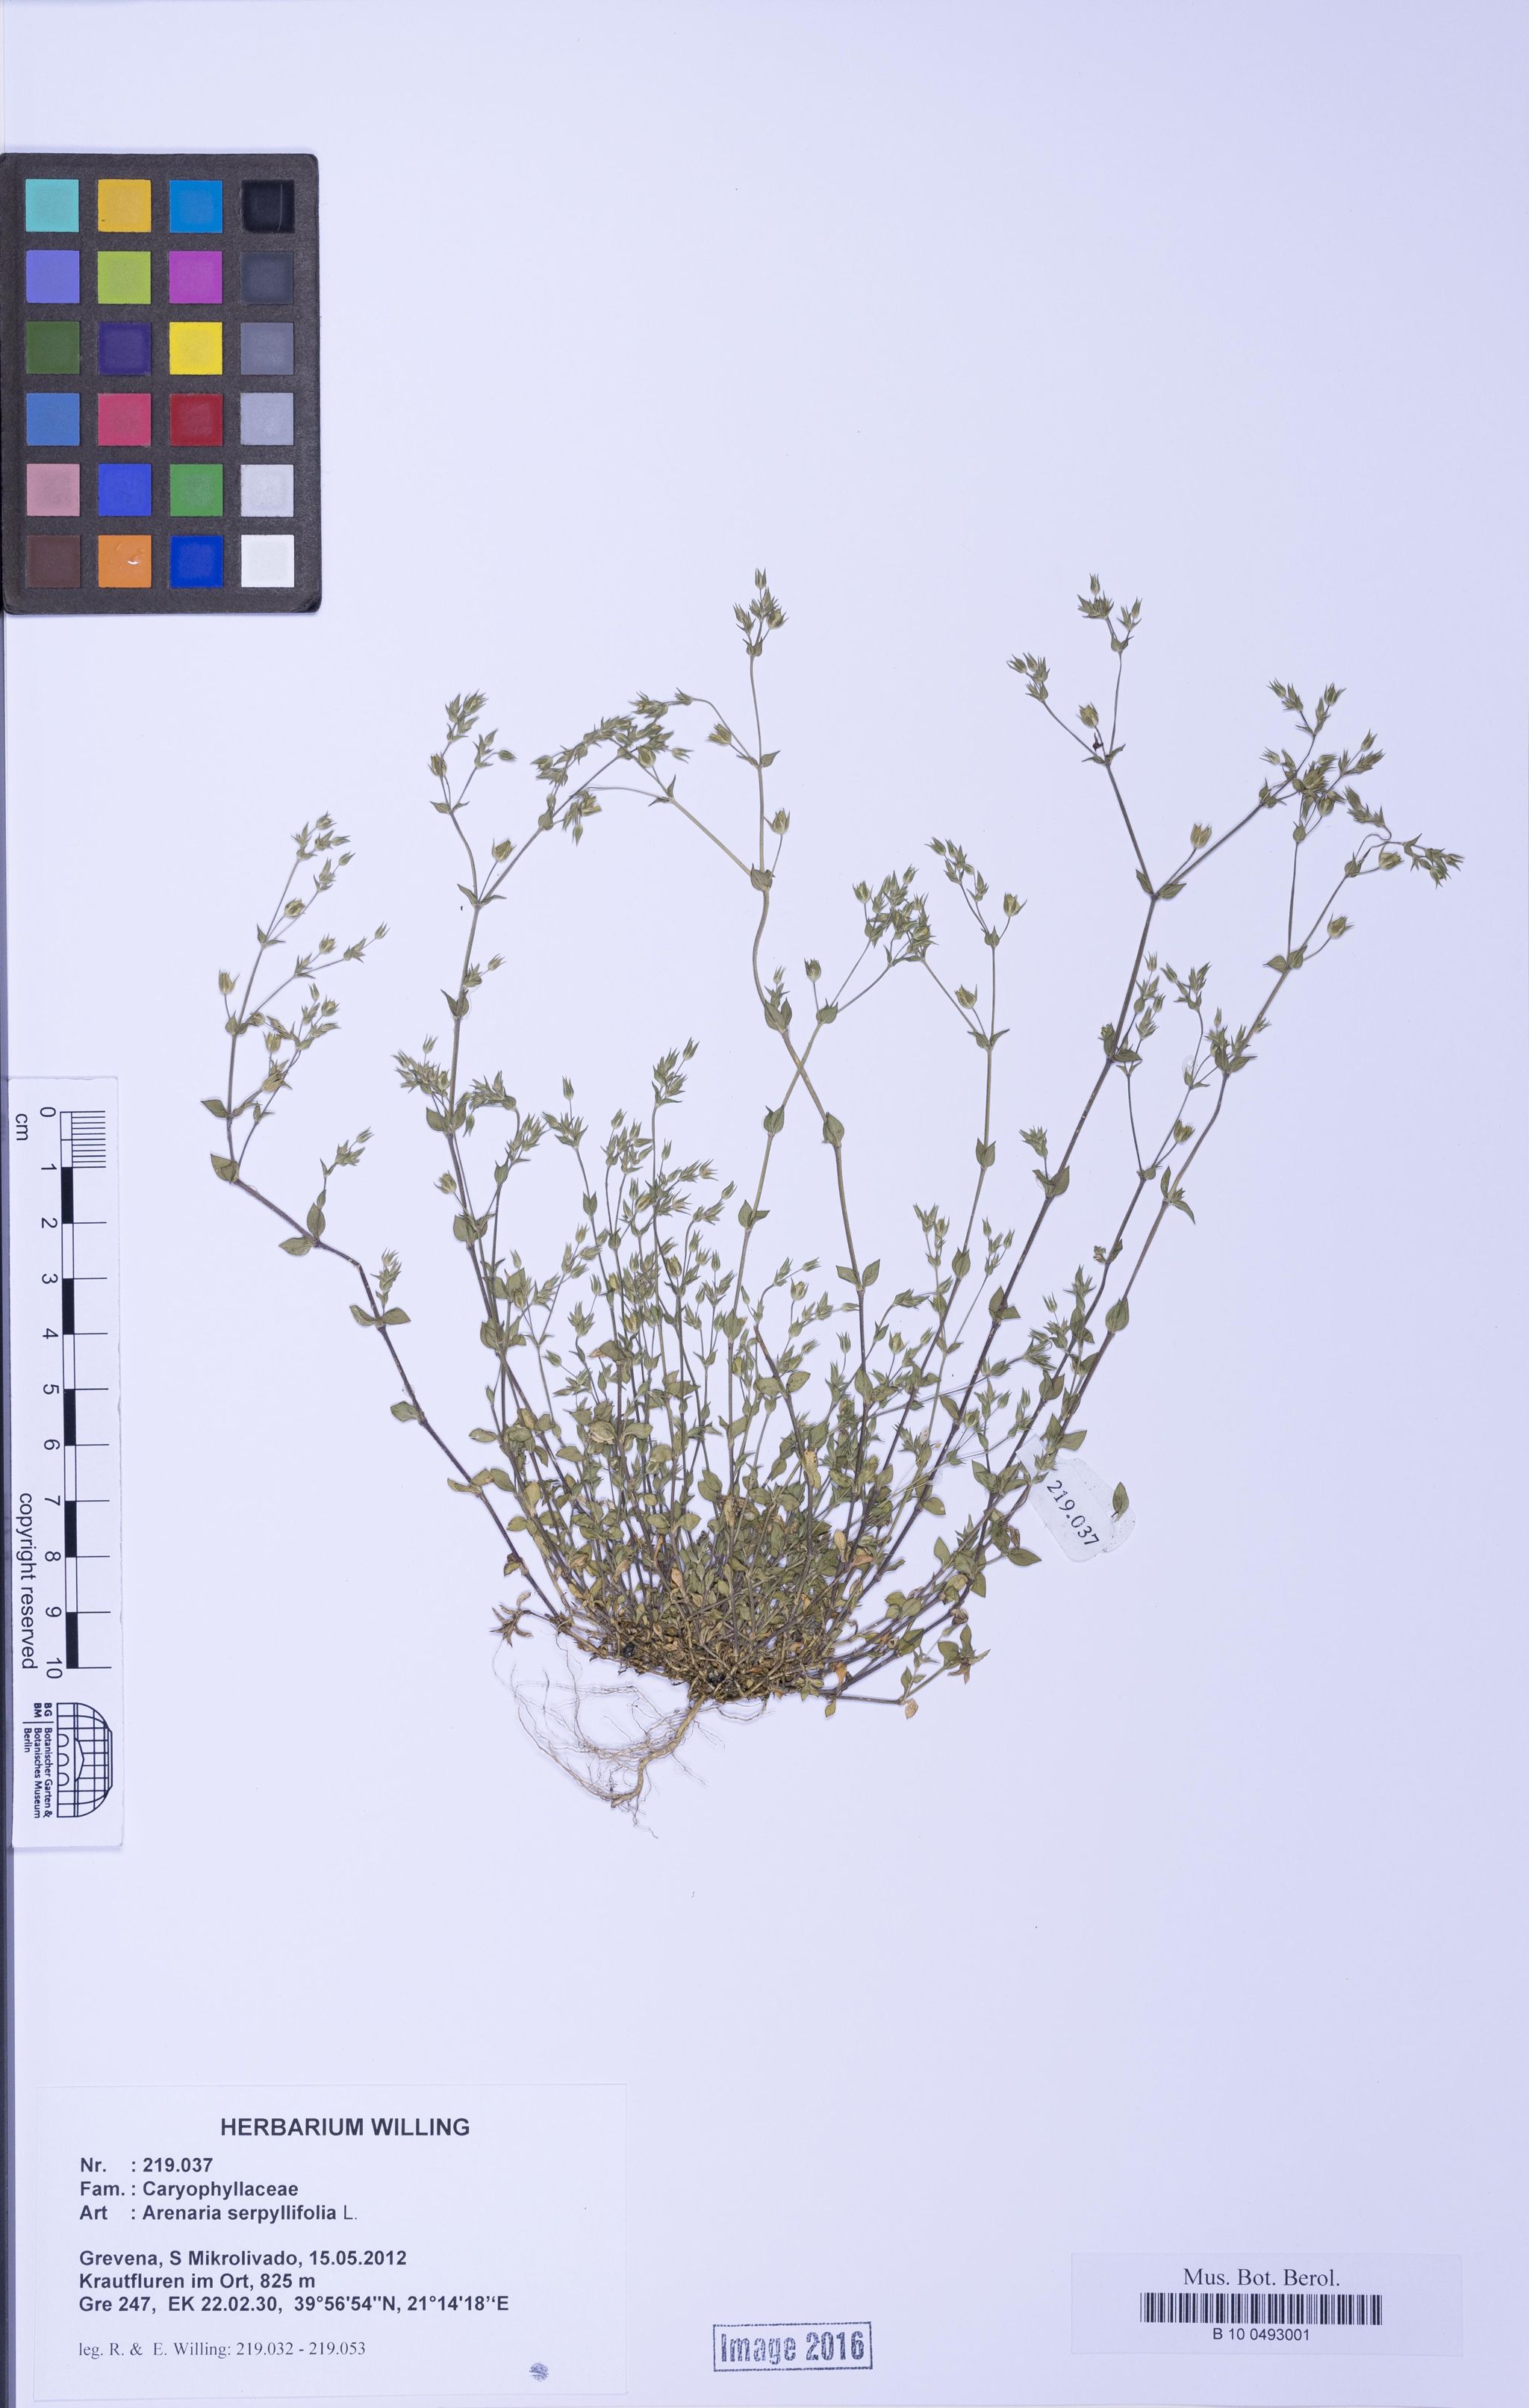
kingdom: Plantae
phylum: Tracheophyta
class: Magnoliopsida
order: Caryophyllales
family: Caryophyllaceae
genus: Arenaria
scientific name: Arenaria serpyllifolia
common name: Thyme-leaved sandwort
